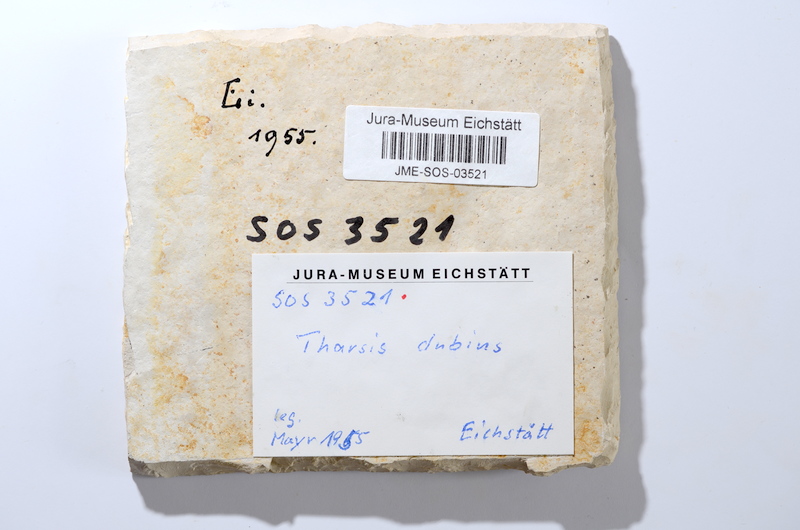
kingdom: Animalia
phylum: Chordata
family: Ascalaboidae
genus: Tharsis
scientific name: Tharsis dubius
